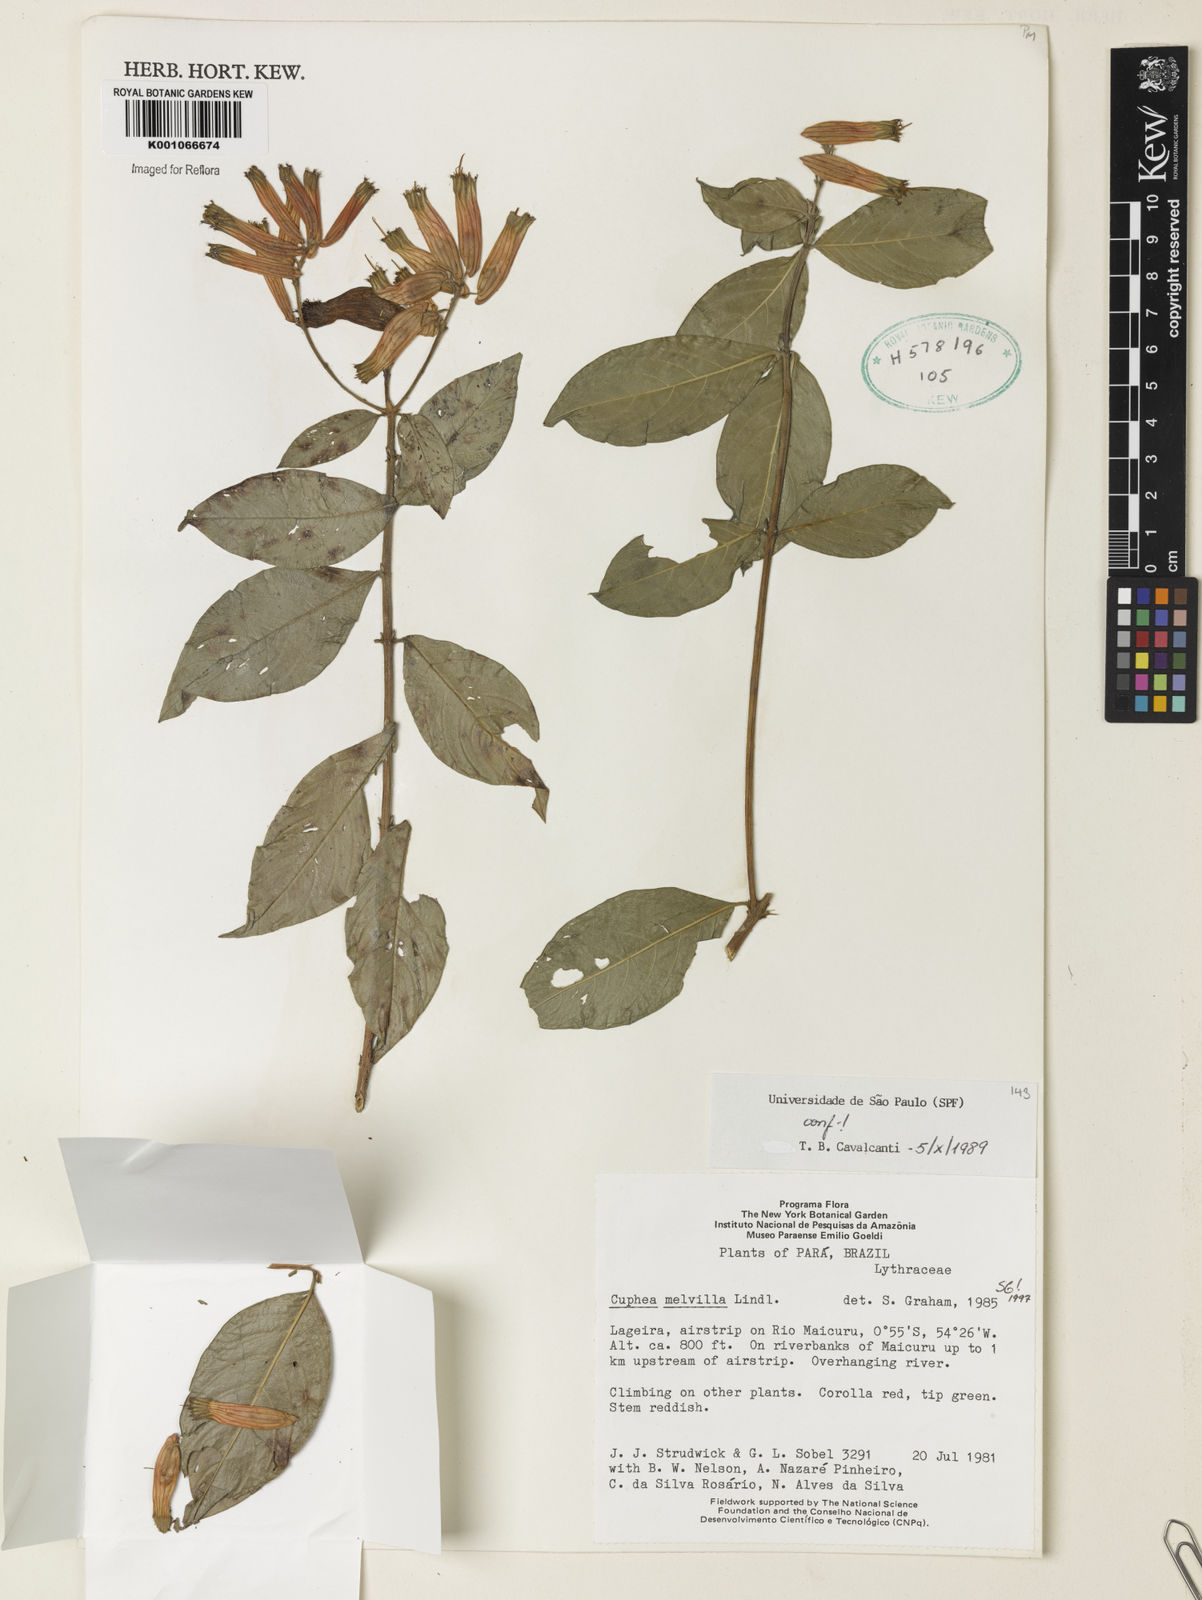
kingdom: Plantae
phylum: Tracheophyta
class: Magnoliopsida
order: Myrtales
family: Lythraceae
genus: Cuphea
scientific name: Cuphea melvilla
